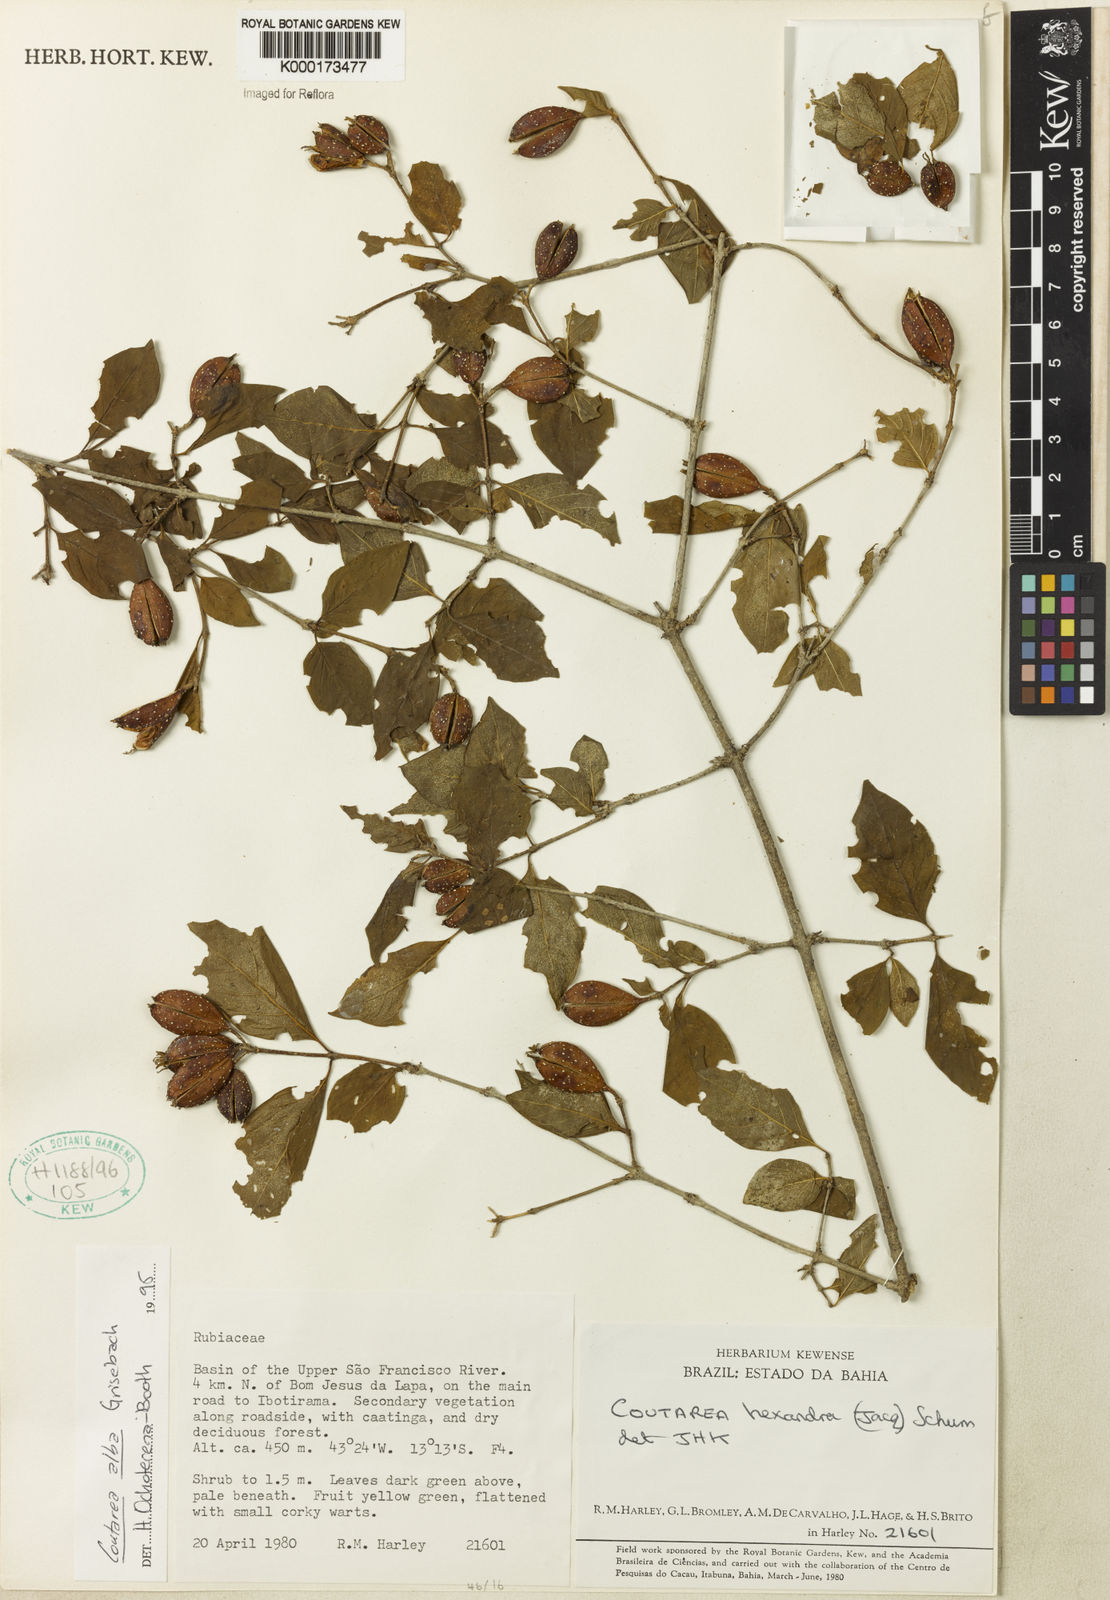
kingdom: Plantae
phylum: Tracheophyta
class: Magnoliopsida
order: Gentianales
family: Rubiaceae
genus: Coutarea
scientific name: Coutarea alba
